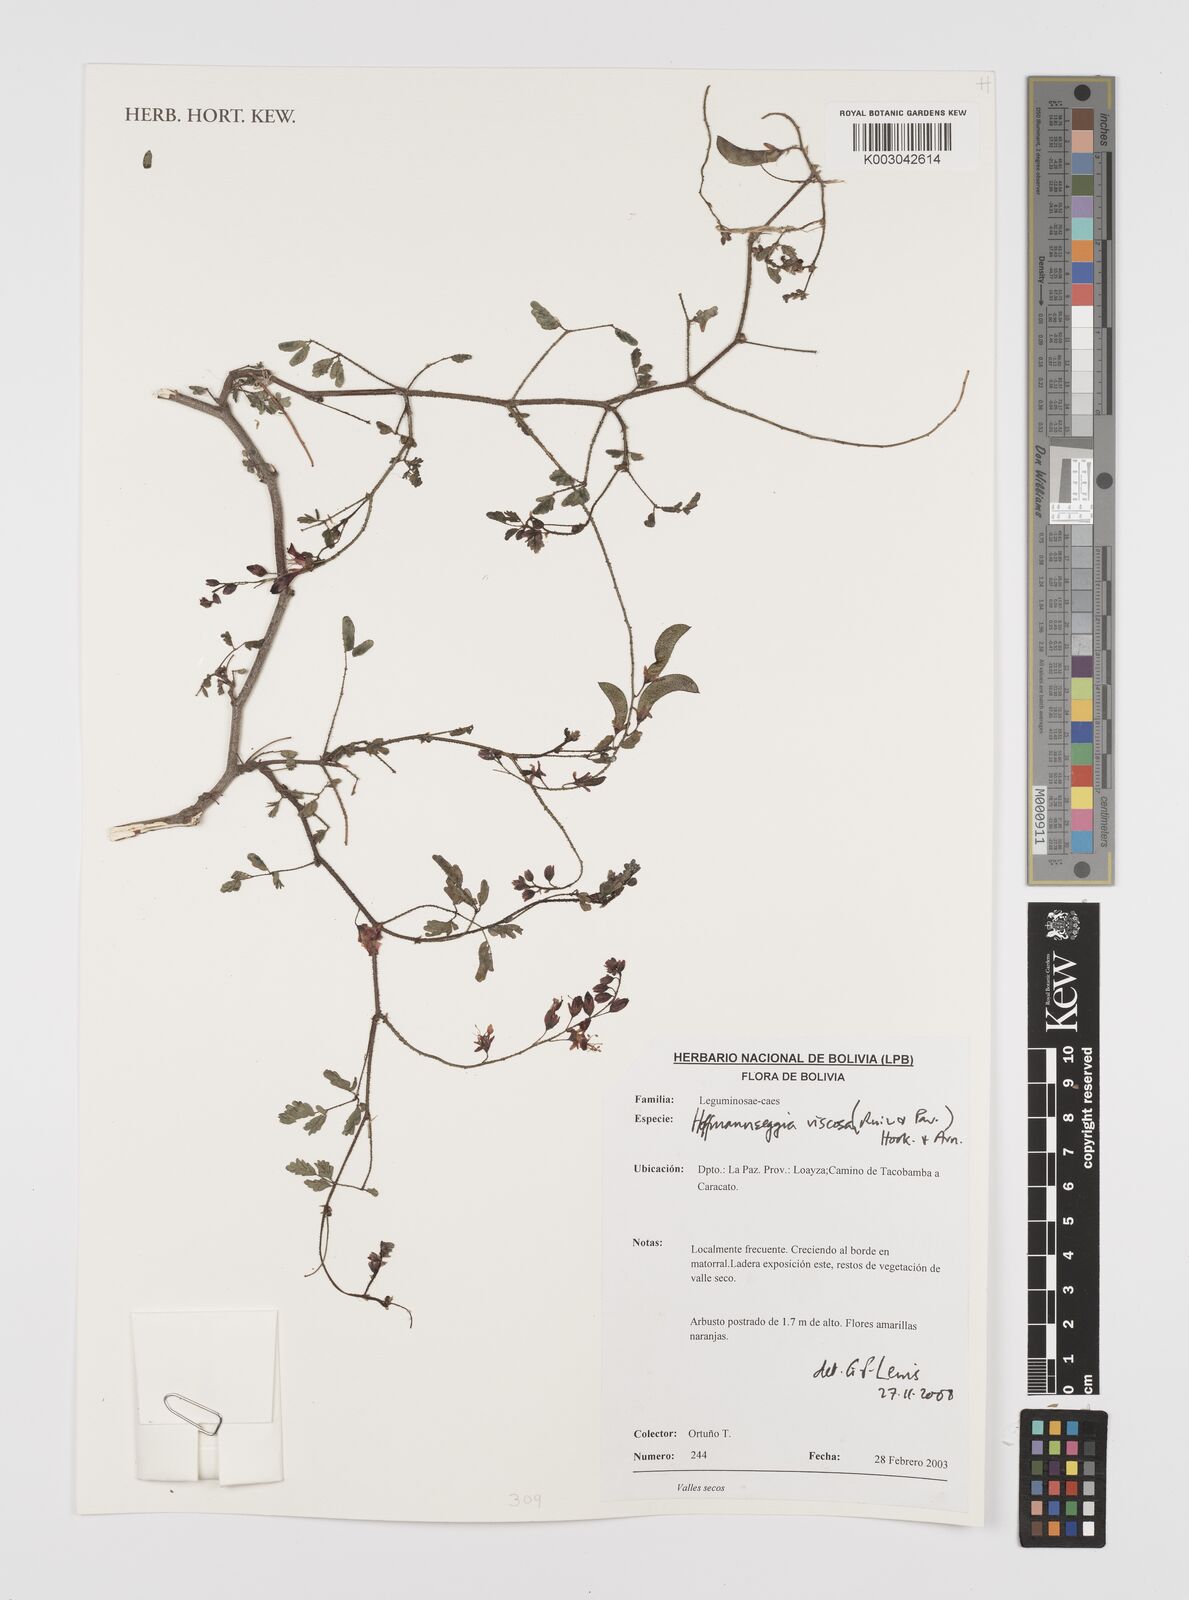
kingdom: Plantae
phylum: Tracheophyta
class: Magnoliopsida
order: Fabales
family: Fabaceae
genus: Hoffmannseggia
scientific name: Hoffmannseggia viscosa
